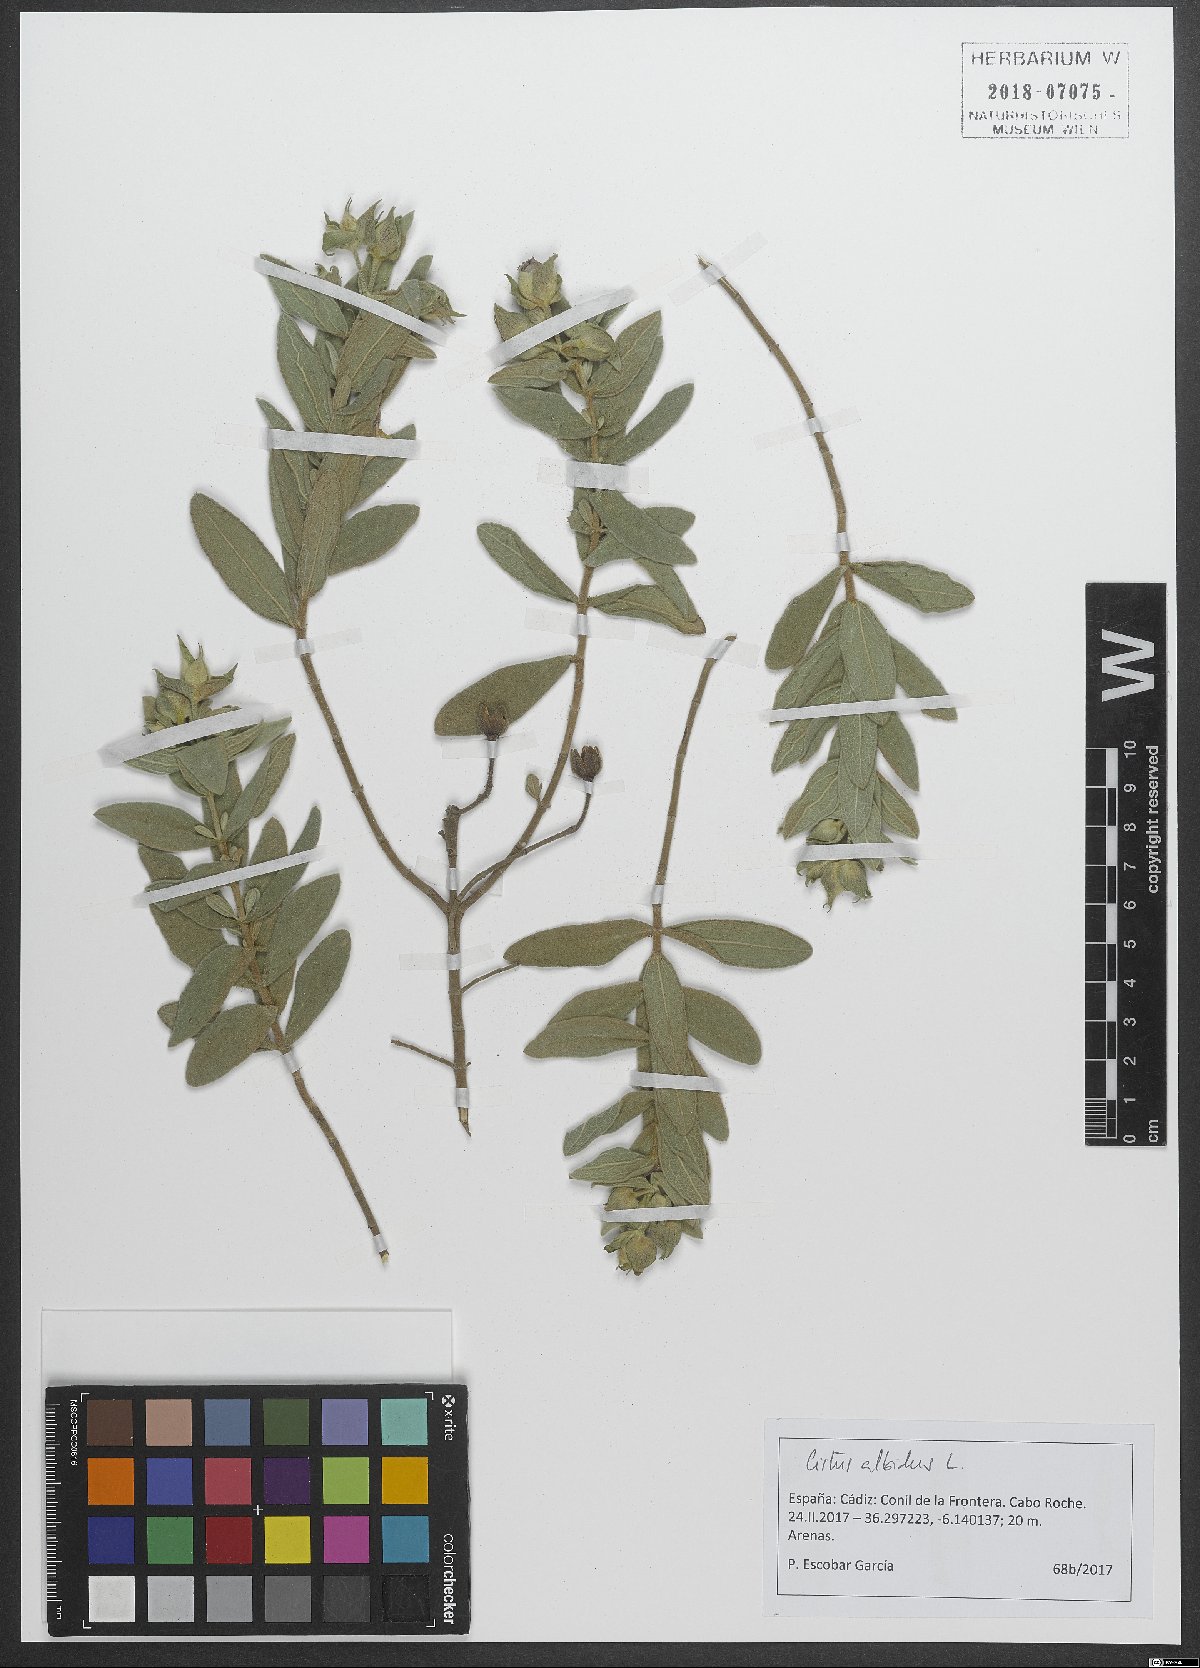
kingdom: Plantae
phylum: Tracheophyta
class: Magnoliopsida
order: Malvales
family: Cistaceae
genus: Cistus
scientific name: Cistus albidus
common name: White-leaf rock-rose
